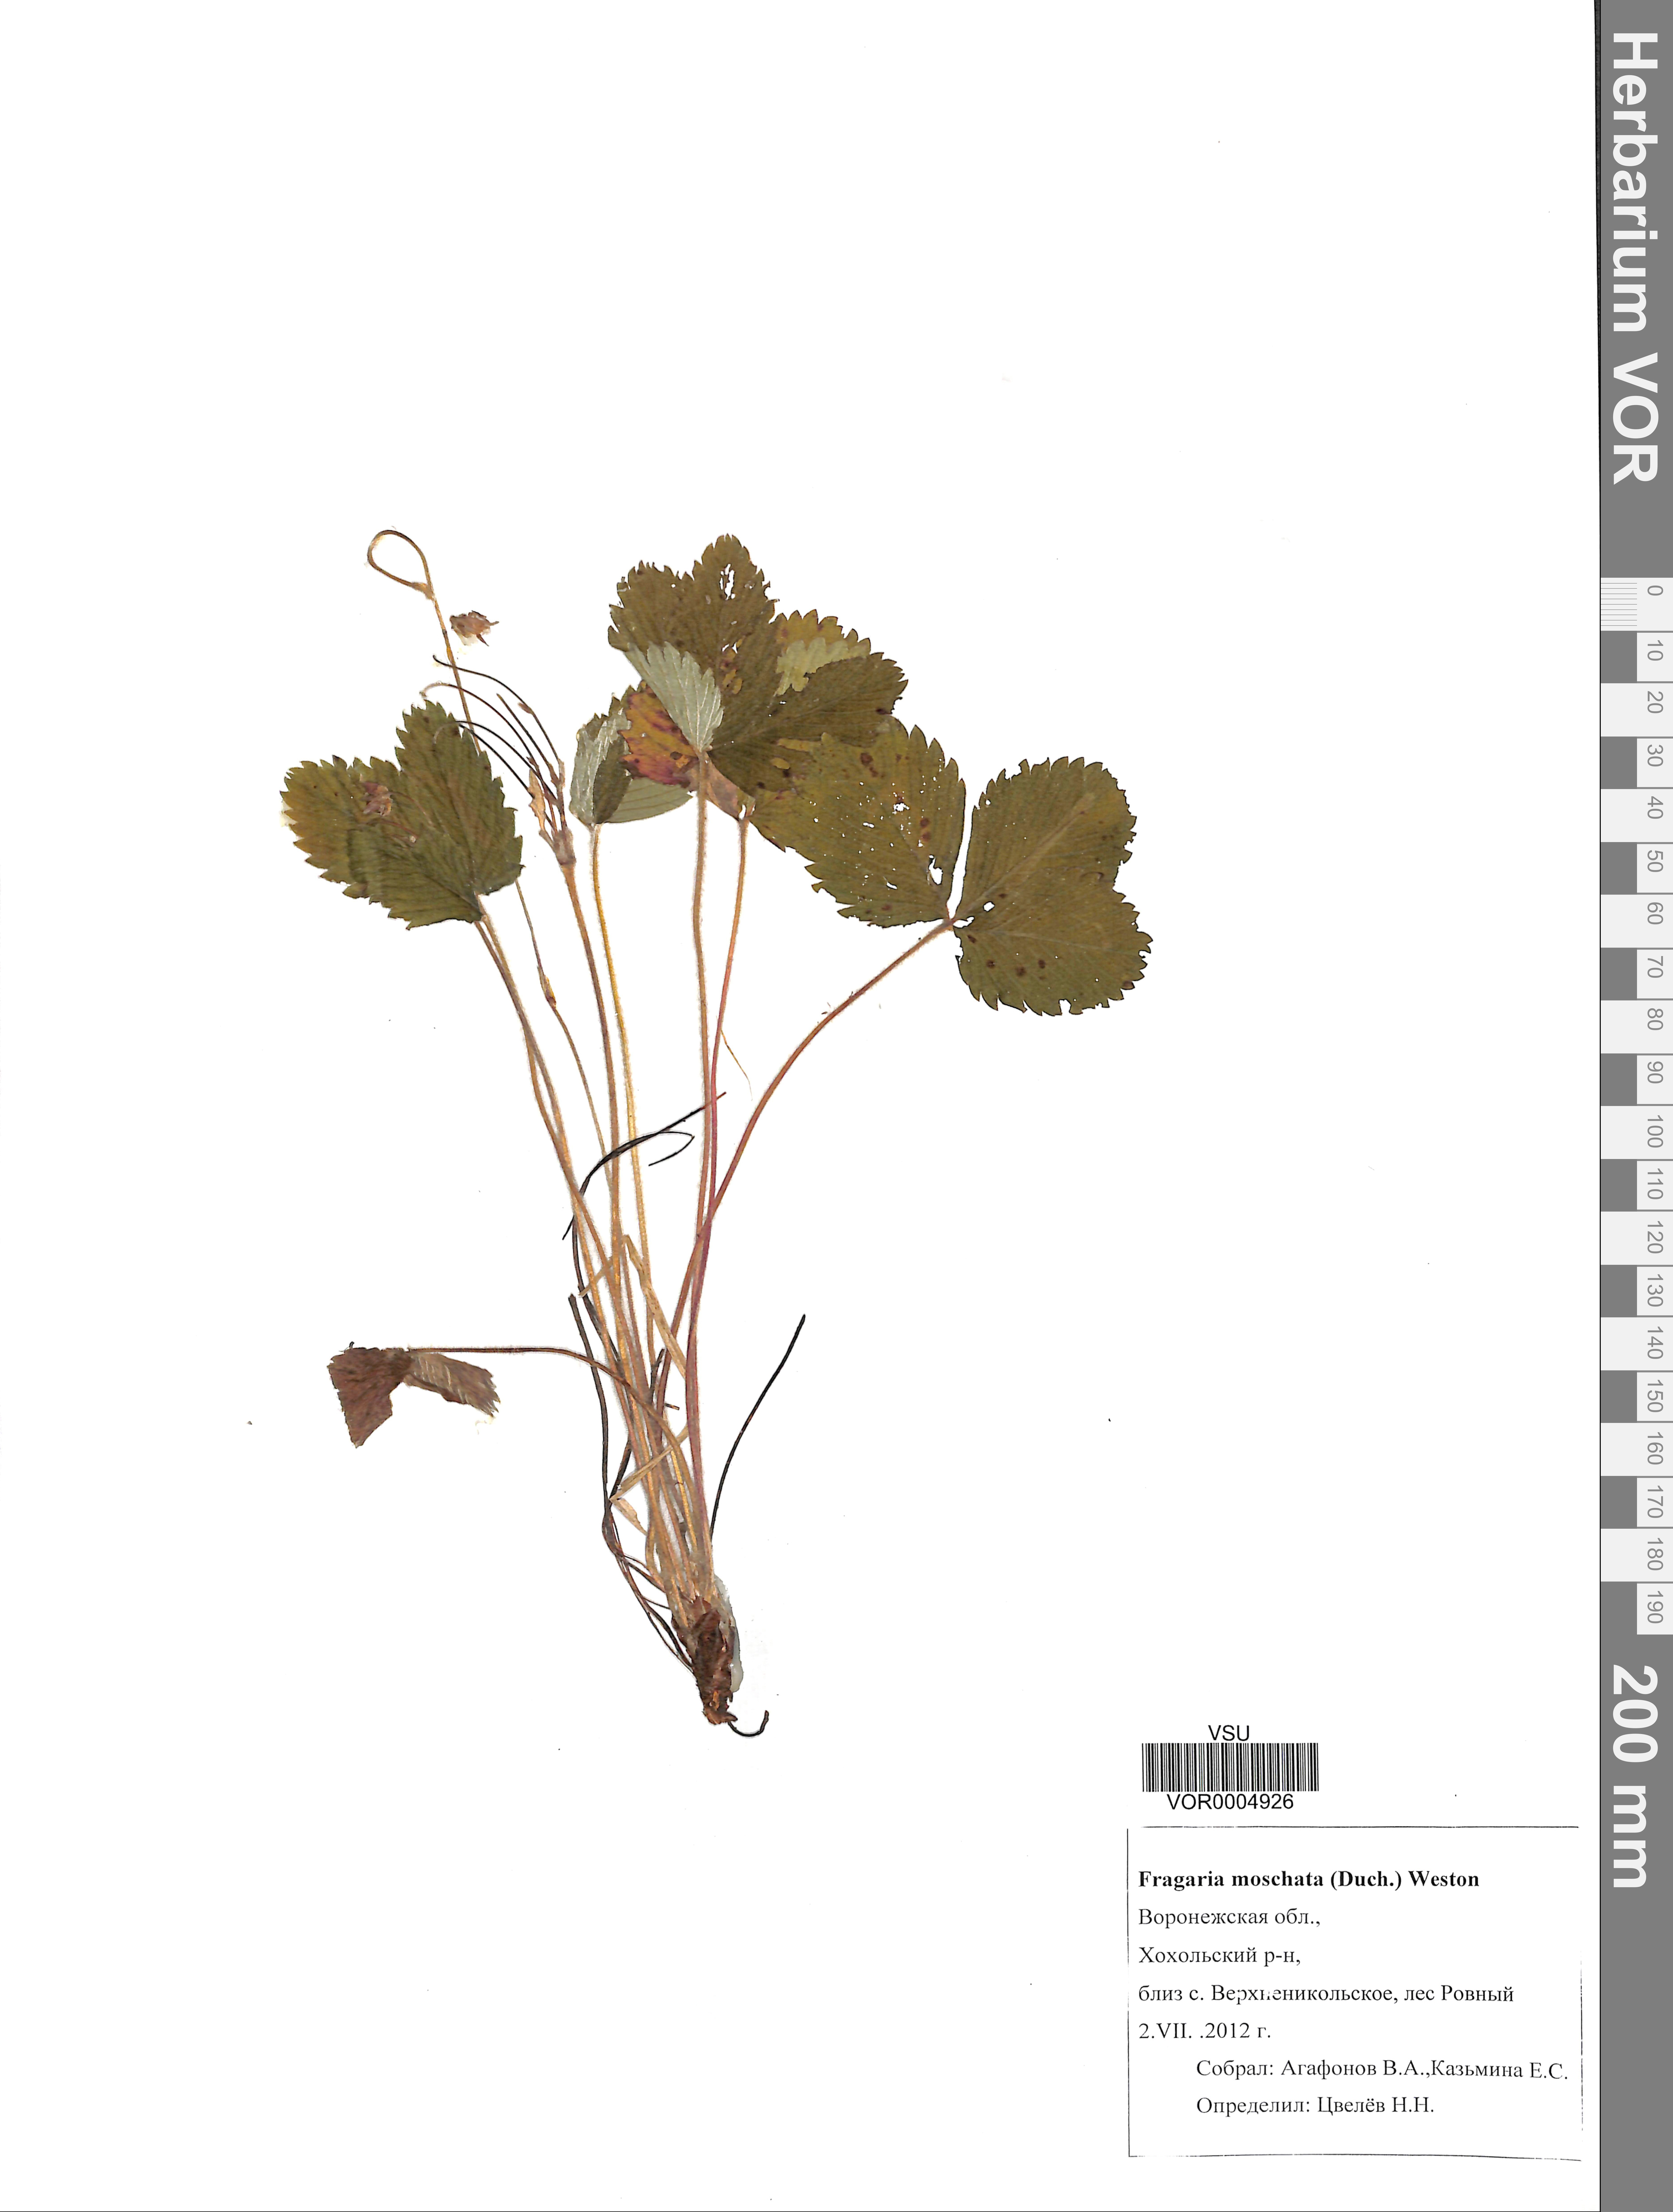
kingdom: Plantae
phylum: Tracheophyta
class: Magnoliopsida
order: Rosales
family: Rosaceae
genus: Fragaria
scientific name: Fragaria moschata
